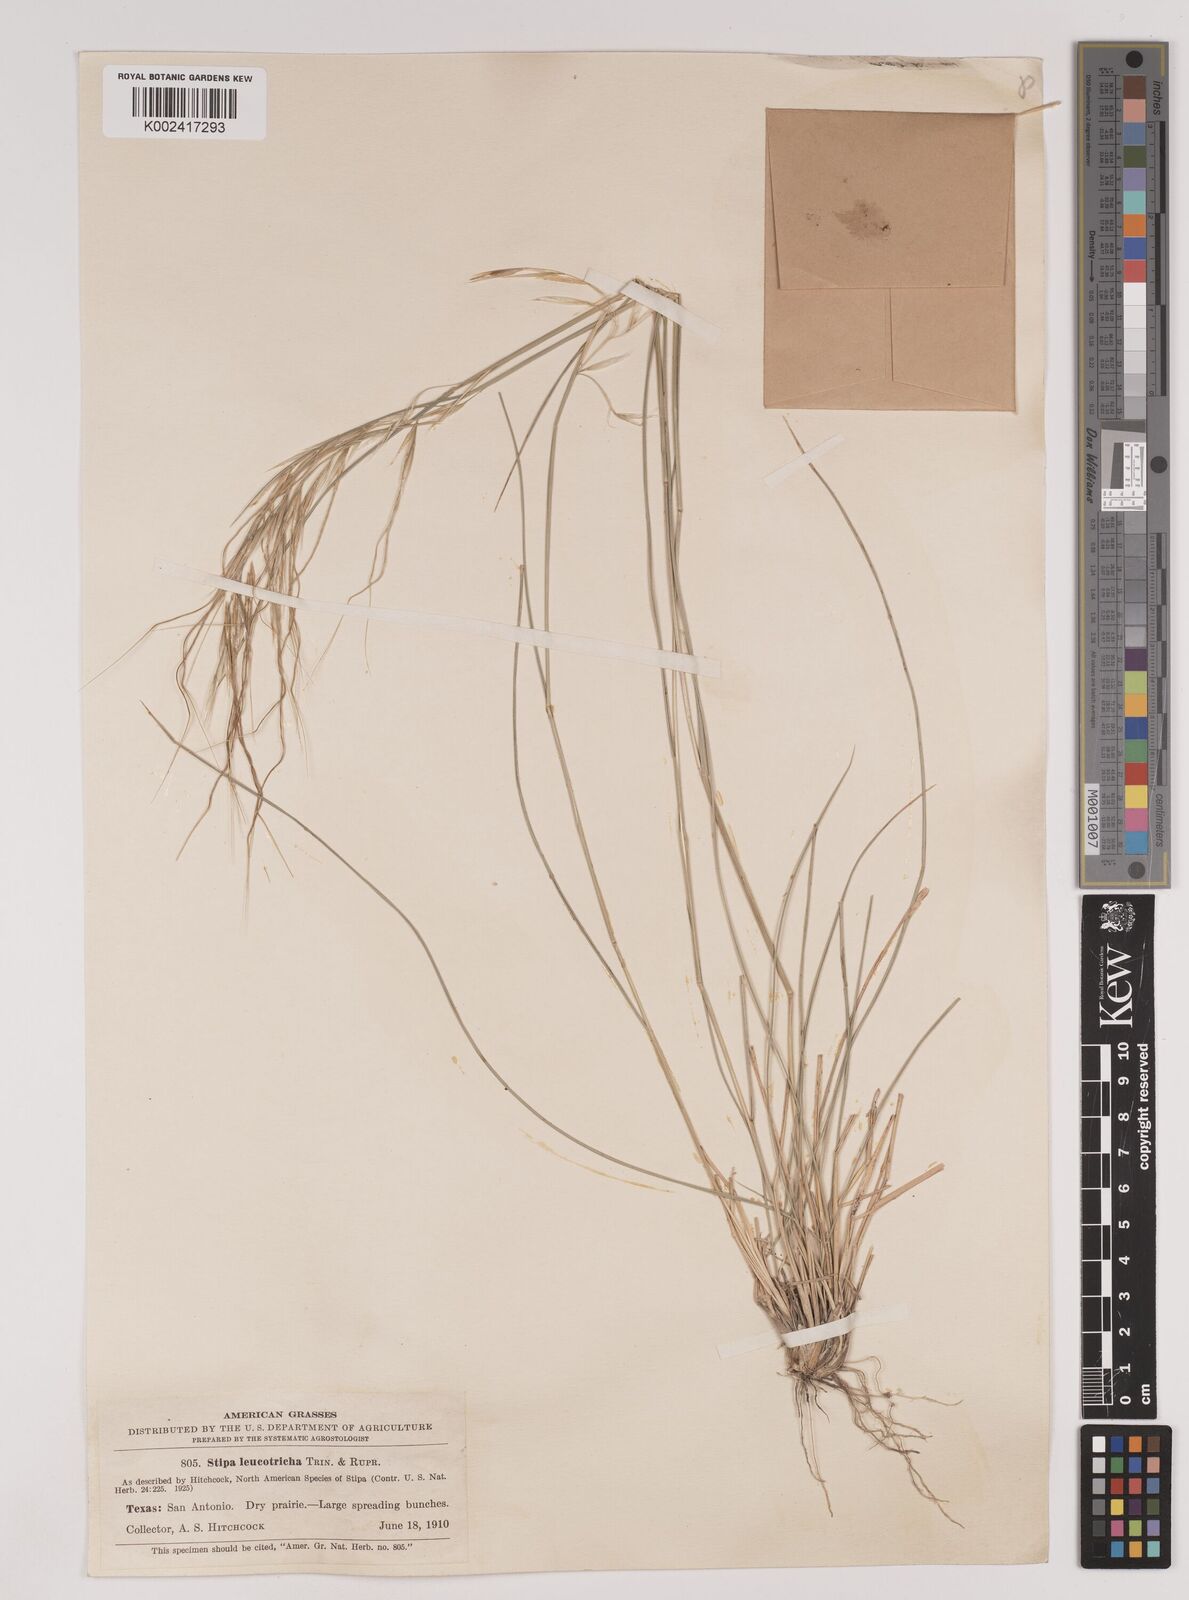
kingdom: Plantae
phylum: Tracheophyta
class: Liliopsida
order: Poales
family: Poaceae
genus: Nassella
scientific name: Nassella leucotricha
